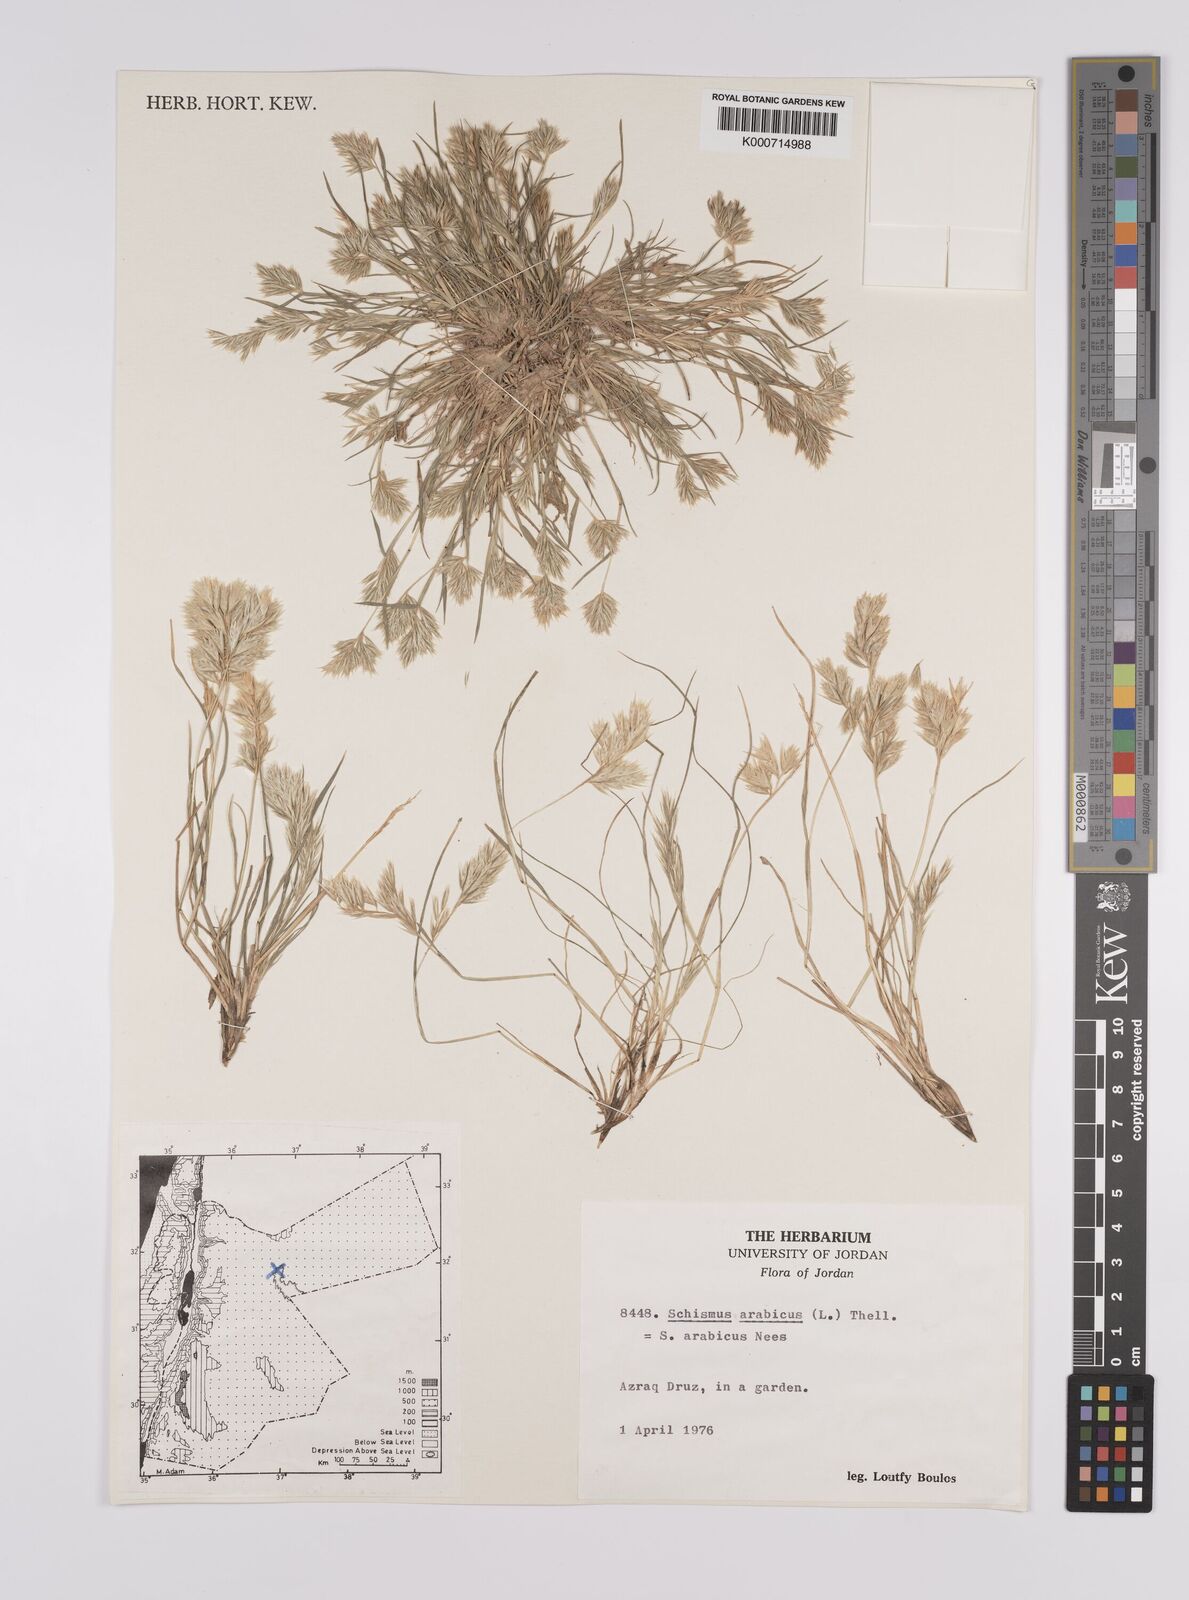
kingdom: Plantae
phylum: Tracheophyta
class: Liliopsida
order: Poales
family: Poaceae
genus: Schismus
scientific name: Schismus arabicus
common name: Arabian schismus
